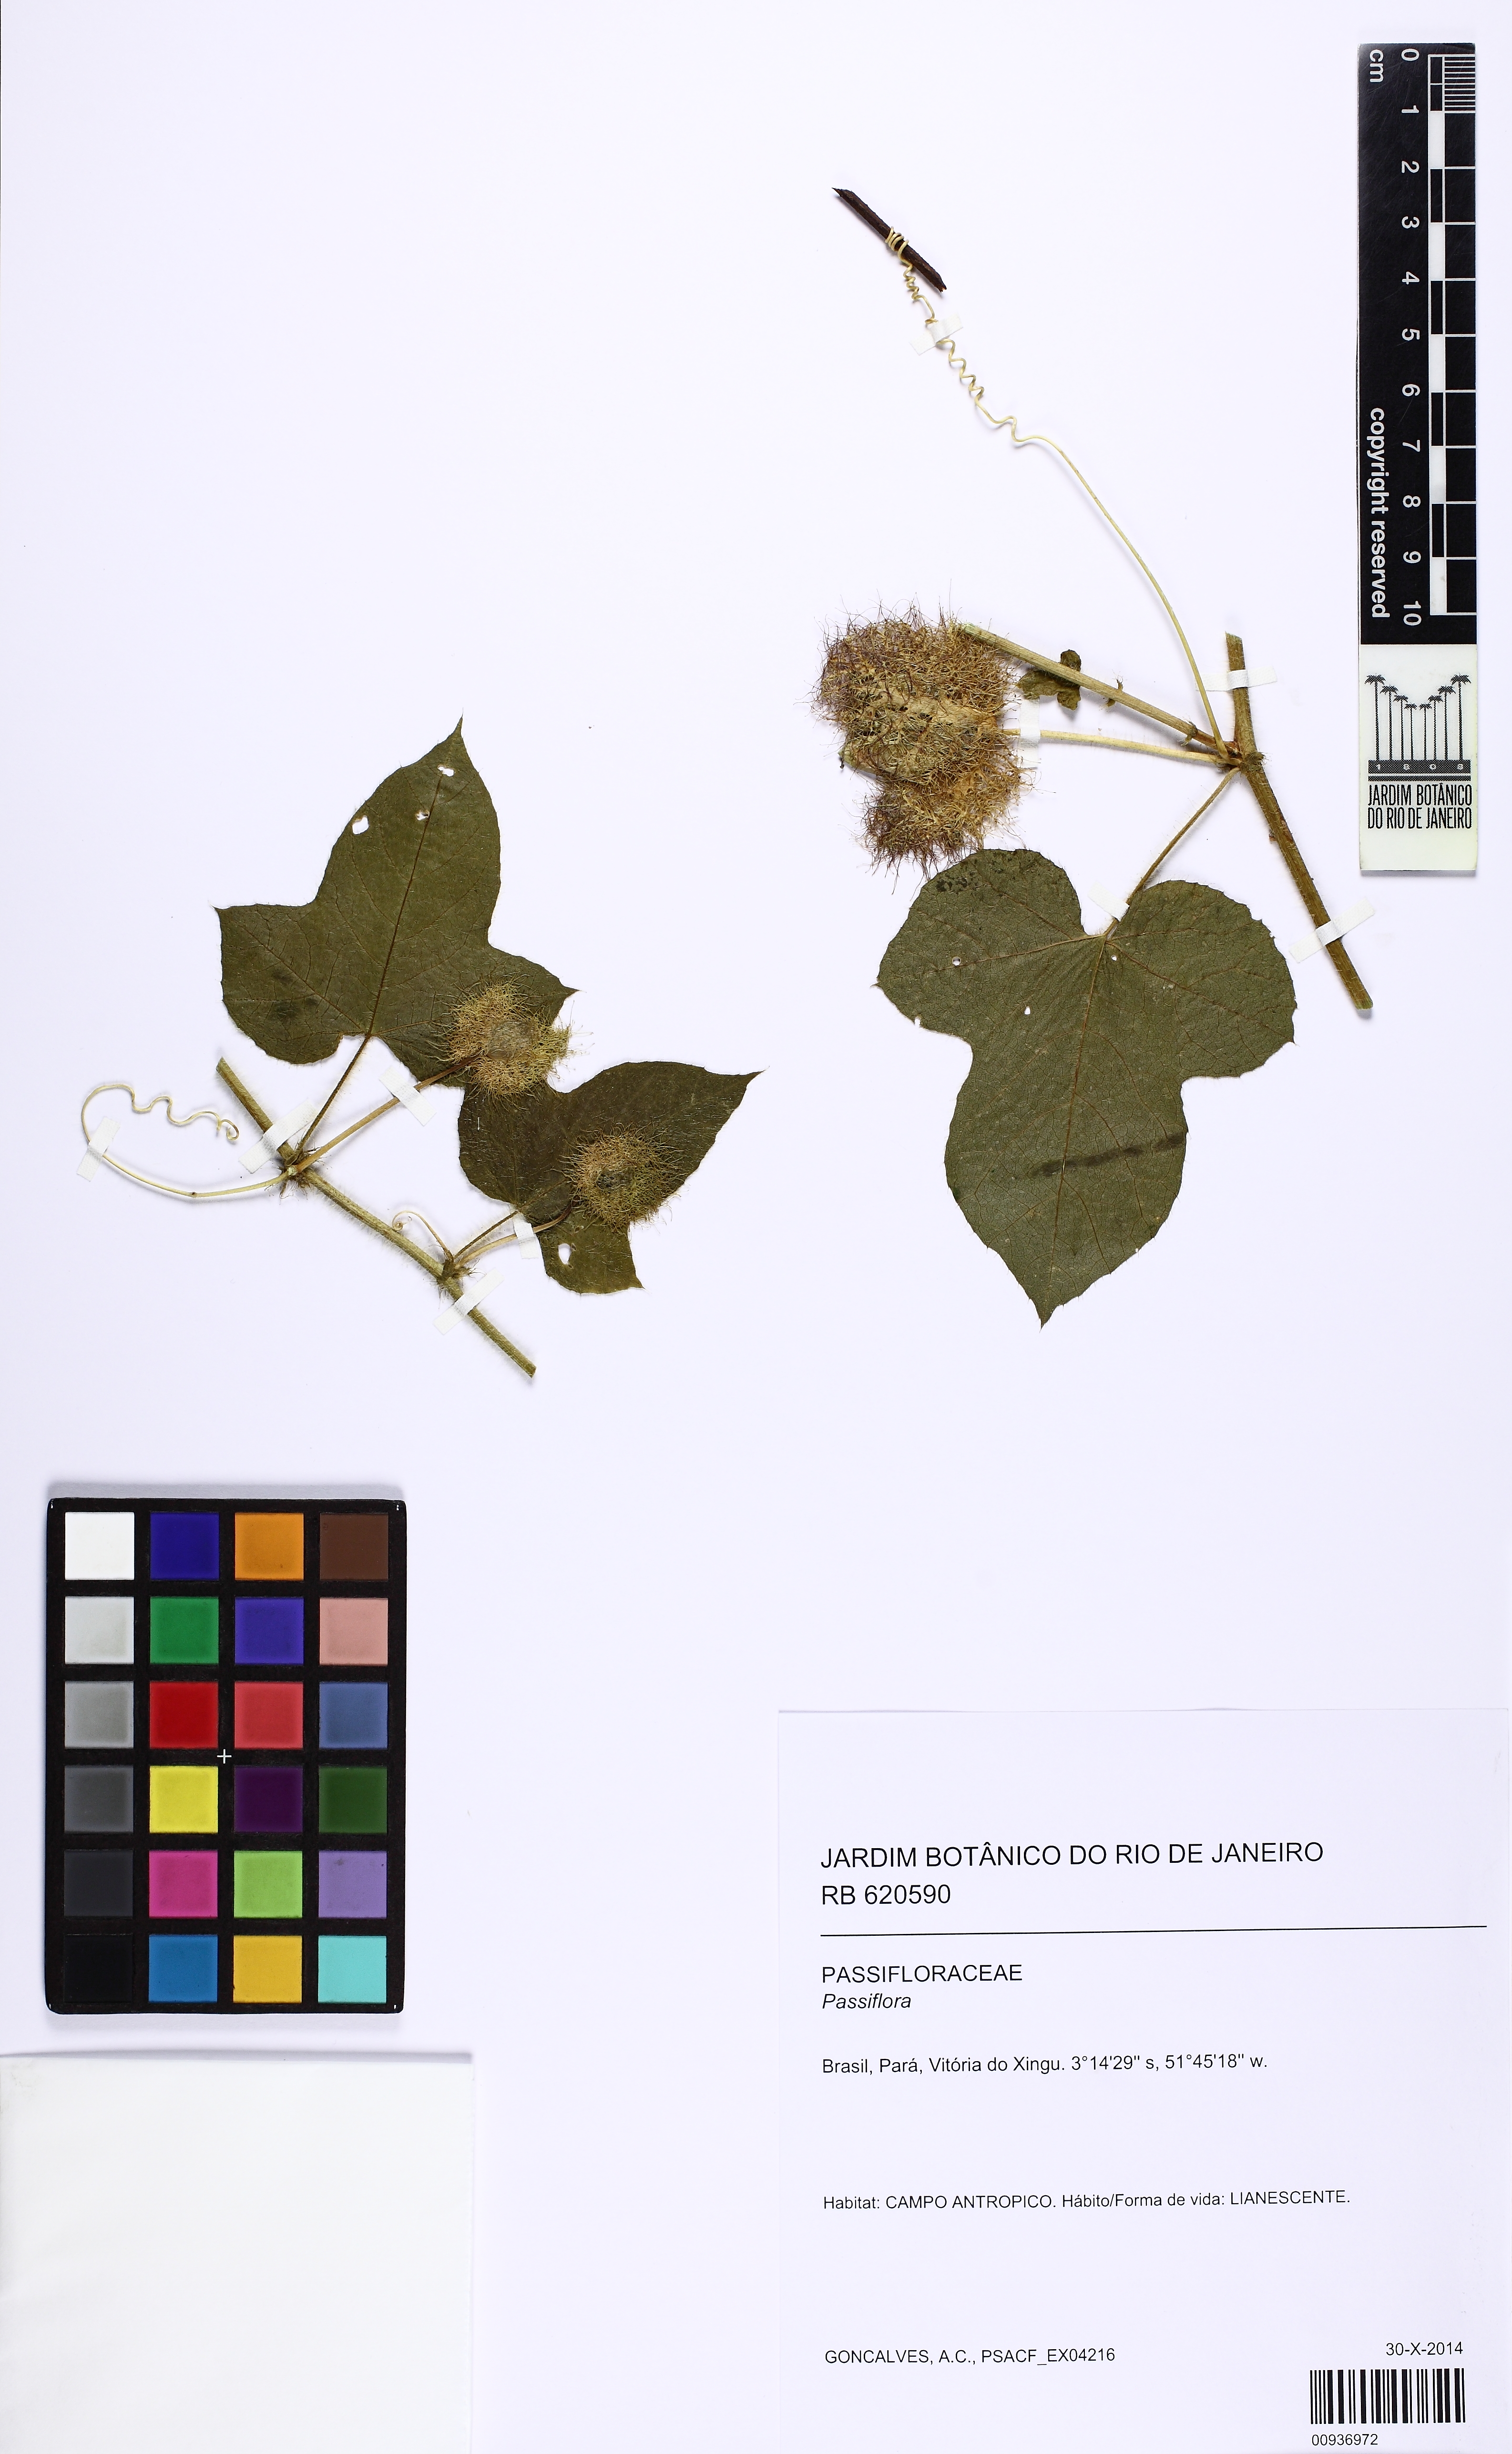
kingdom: Plantae
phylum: Tracheophyta
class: Magnoliopsida
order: Malpighiales
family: Passifloraceae
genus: Passiflora
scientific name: Passiflora foetida
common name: Fetid passionflower
